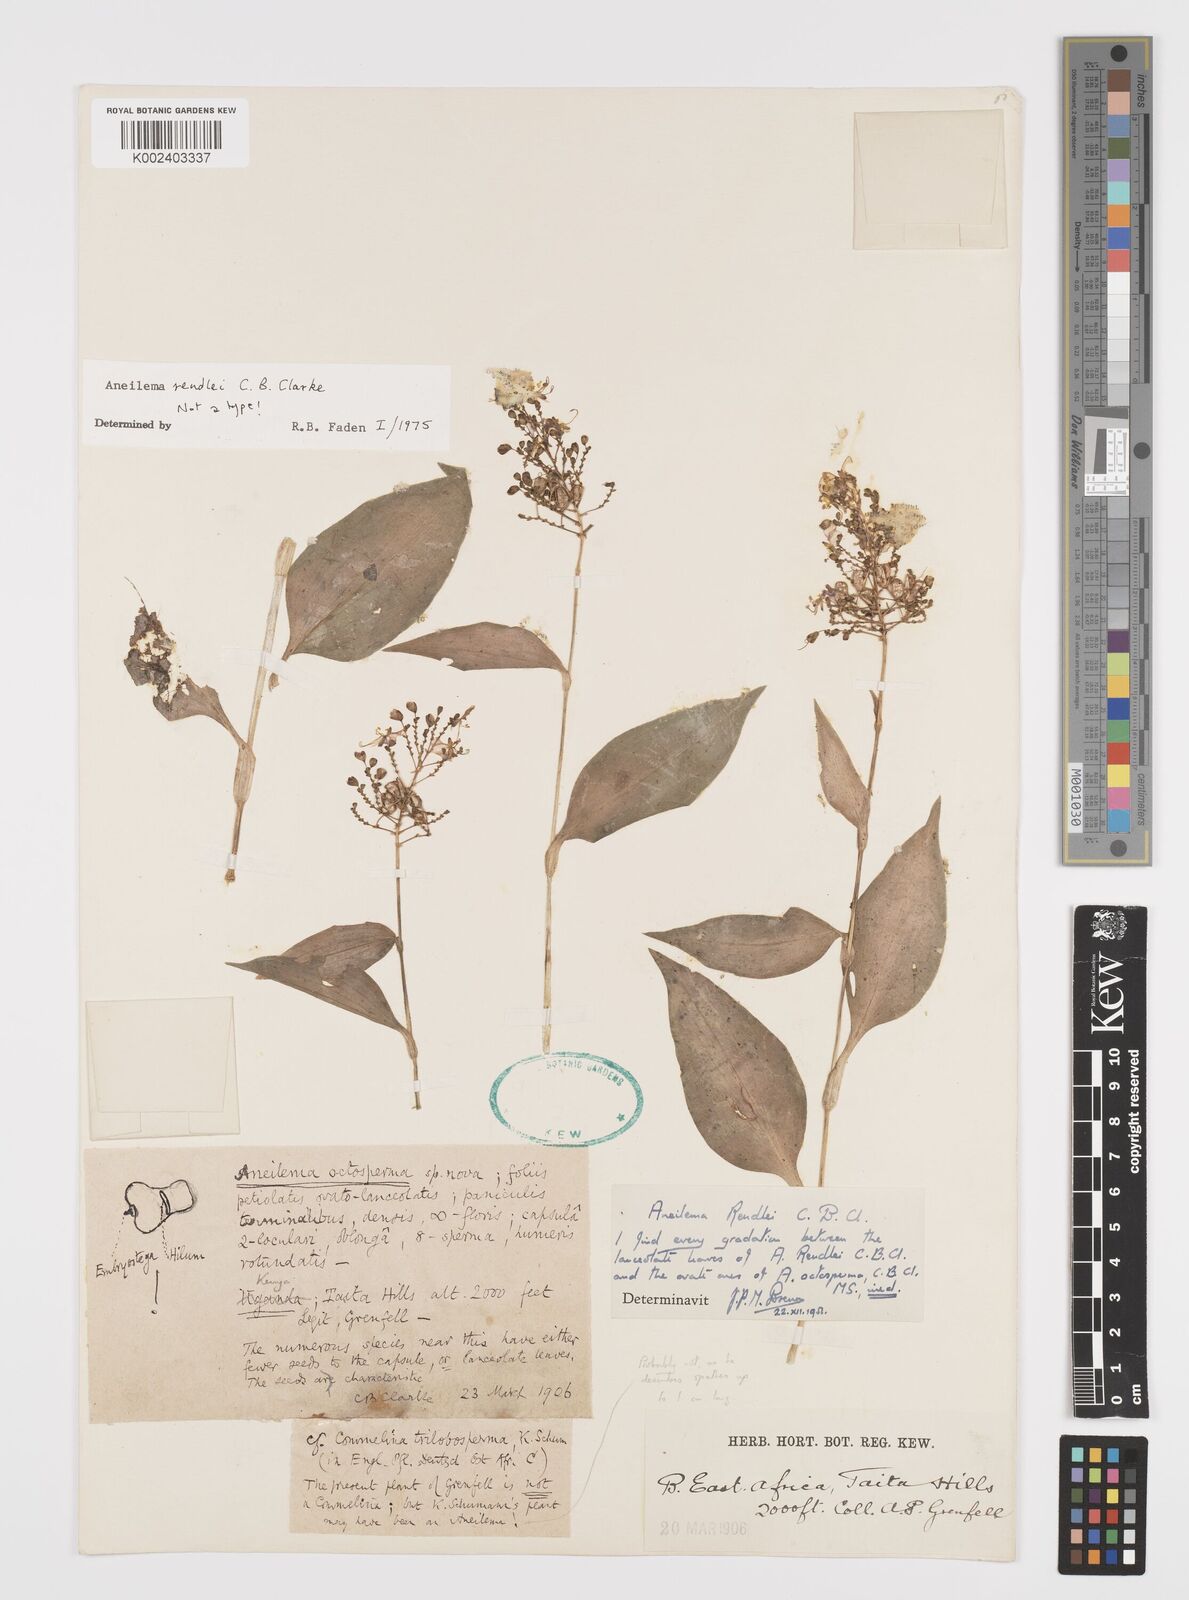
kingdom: Plantae
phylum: Tracheophyta
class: Liliopsida
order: Commelinales
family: Commelinaceae
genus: Aneilema
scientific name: Aneilema rendlei
